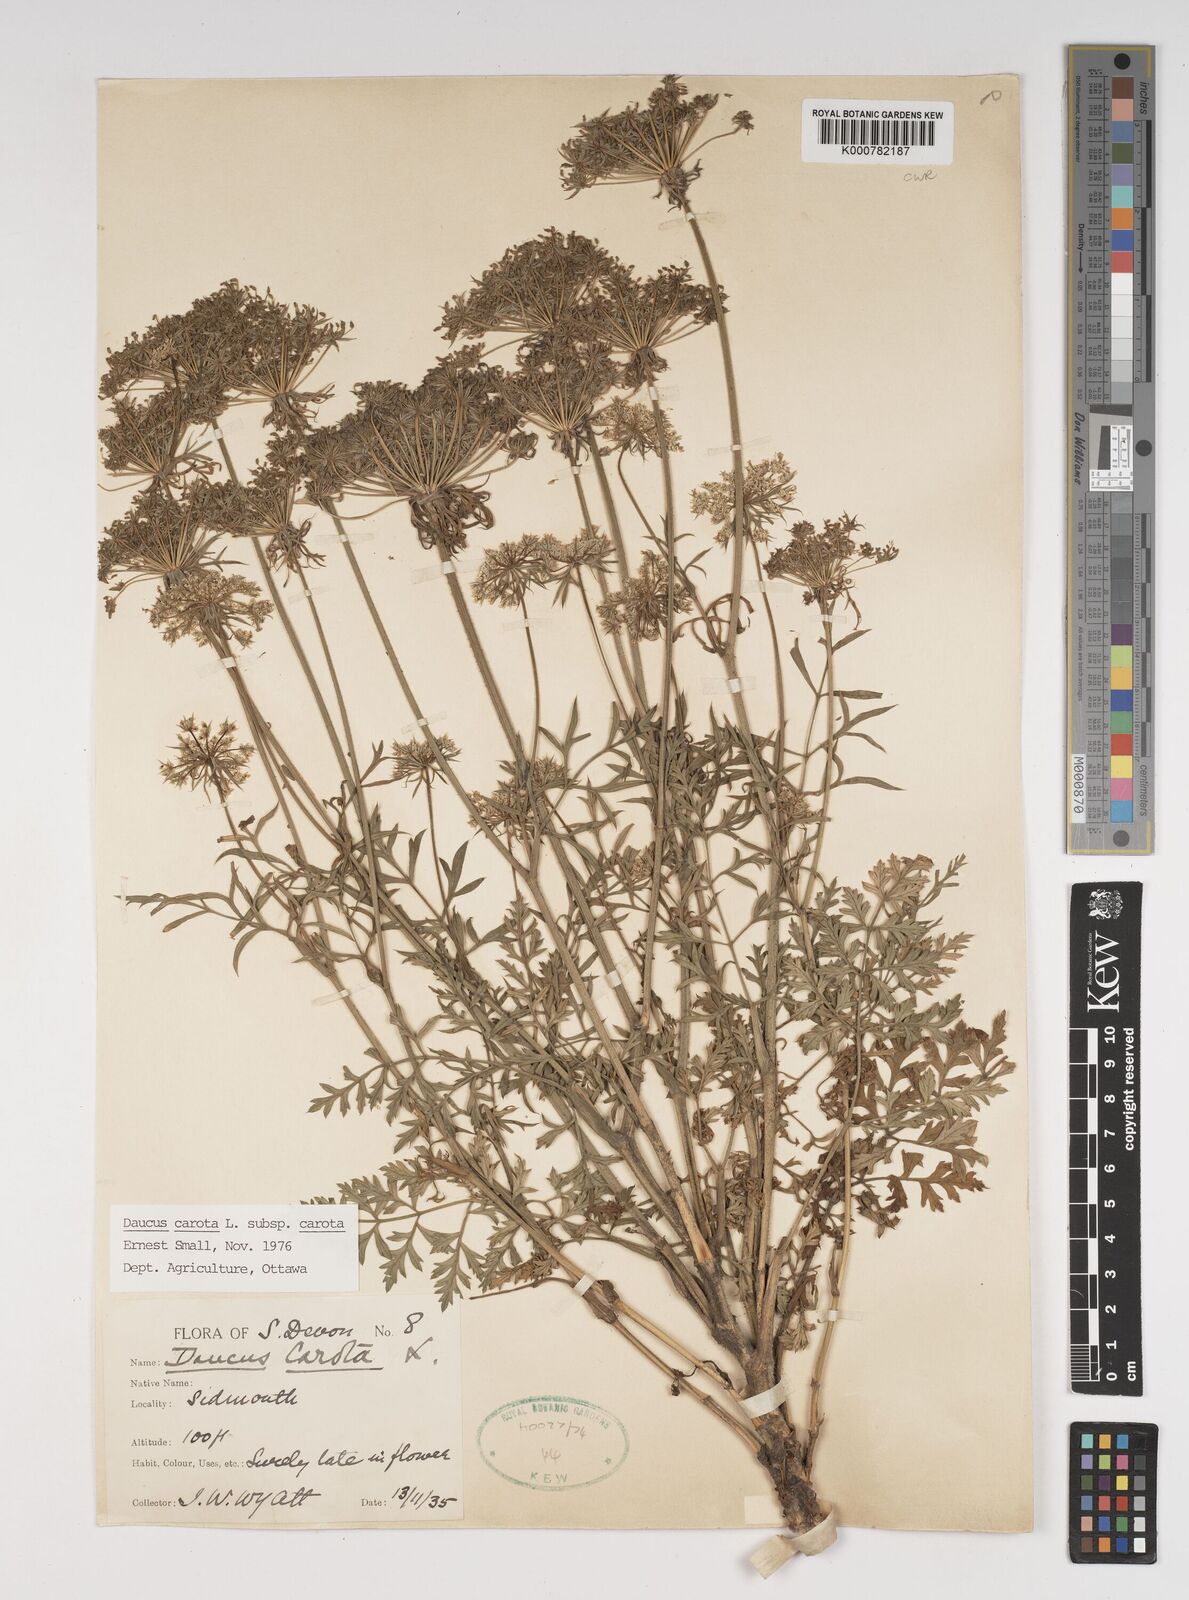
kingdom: Plantae
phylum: Tracheophyta
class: Magnoliopsida
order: Apiales
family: Apiaceae
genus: Daucus
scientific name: Daucus carota
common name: Wild carrot
